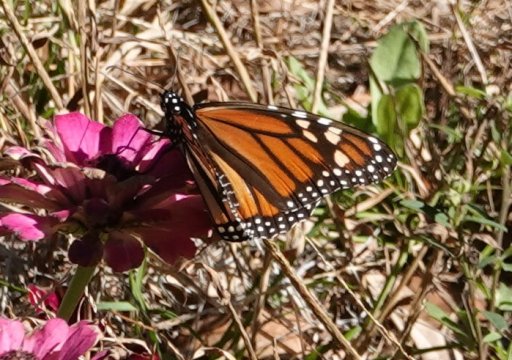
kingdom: Animalia
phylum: Arthropoda
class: Insecta
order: Lepidoptera
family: Nymphalidae
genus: Danaus
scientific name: Danaus plexippus
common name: Monarch
